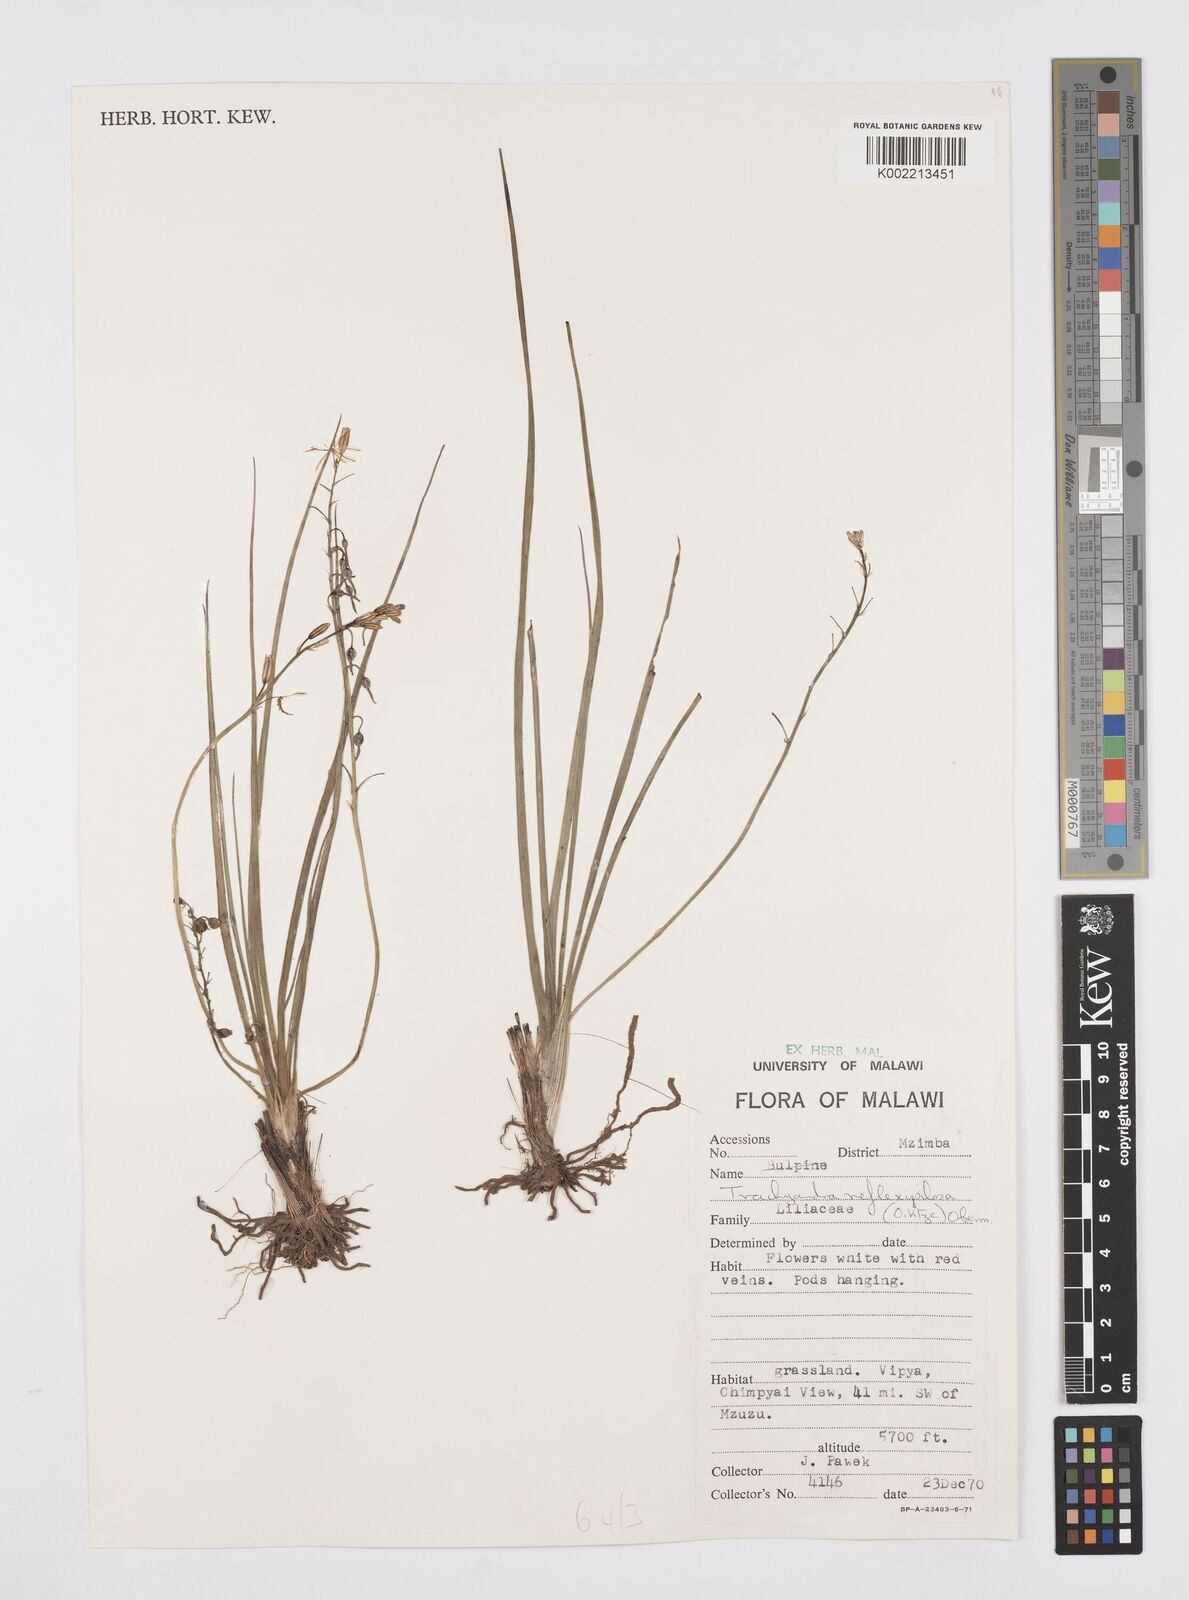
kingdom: Plantae
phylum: Tracheophyta
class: Liliopsida
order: Asparagales
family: Asphodelaceae
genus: Trachyandra
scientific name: Trachyandra saltii
